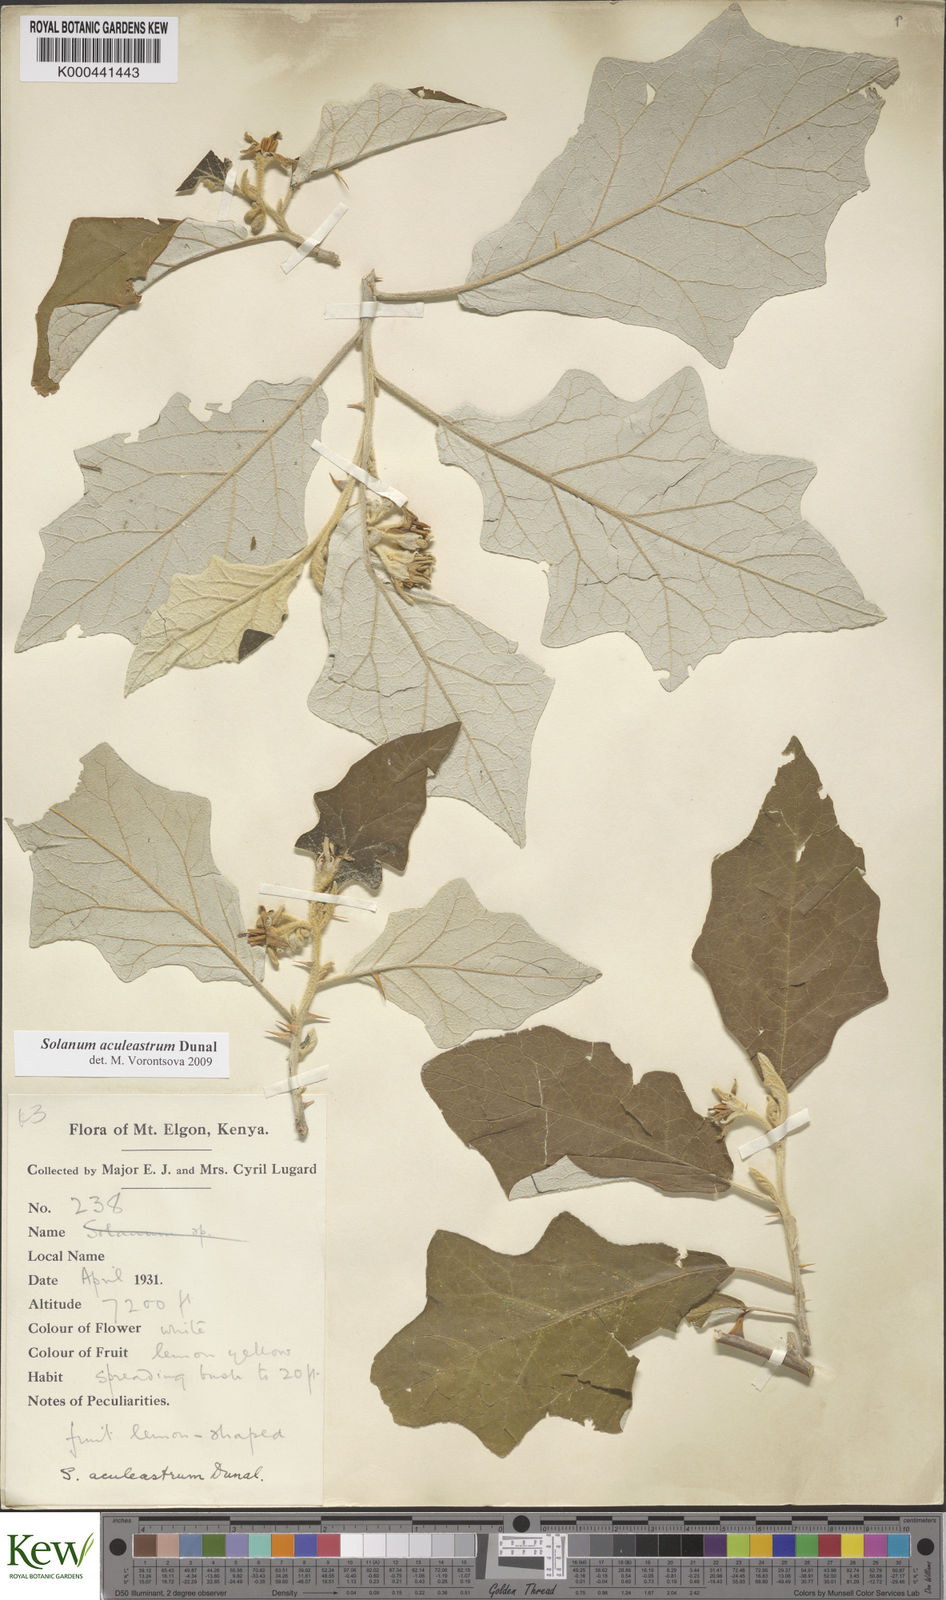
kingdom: Plantae
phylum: Tracheophyta
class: Magnoliopsida
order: Solanales
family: Solanaceae
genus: Solanum
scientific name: Solanum aculeastrum
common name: Goat bitter-apple
